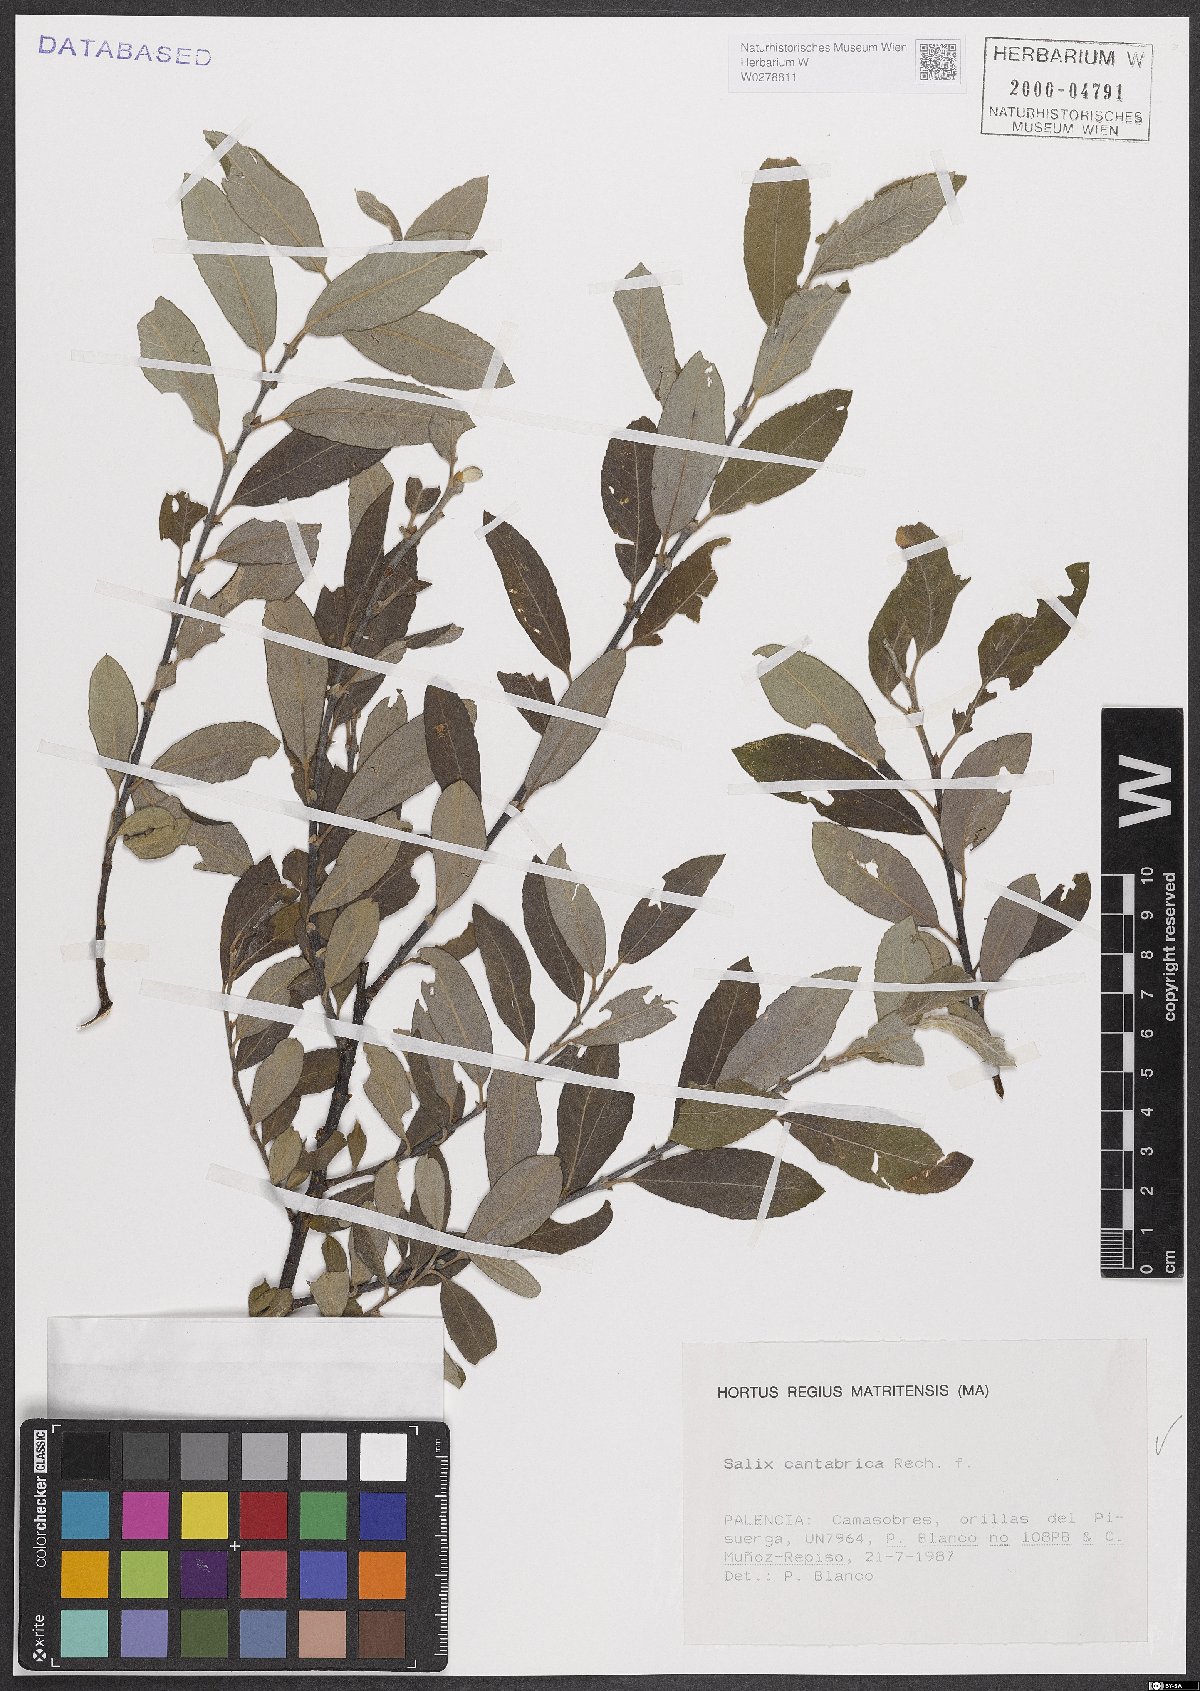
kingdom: Plantae
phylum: Tracheophyta
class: Magnoliopsida
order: Malpighiales
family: Salicaceae
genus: Salix
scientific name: Salix cantabrica
